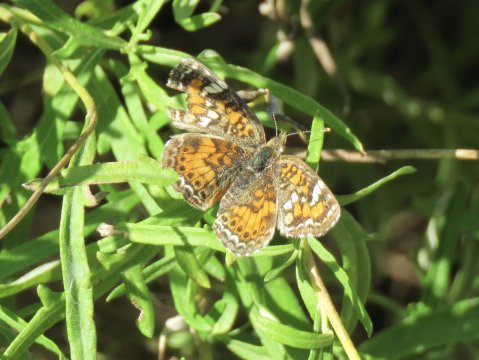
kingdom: Animalia
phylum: Arthropoda
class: Insecta
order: Lepidoptera
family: Nymphalidae
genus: Phyciodes
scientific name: Phyciodes phaon
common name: Phaon Crescent
